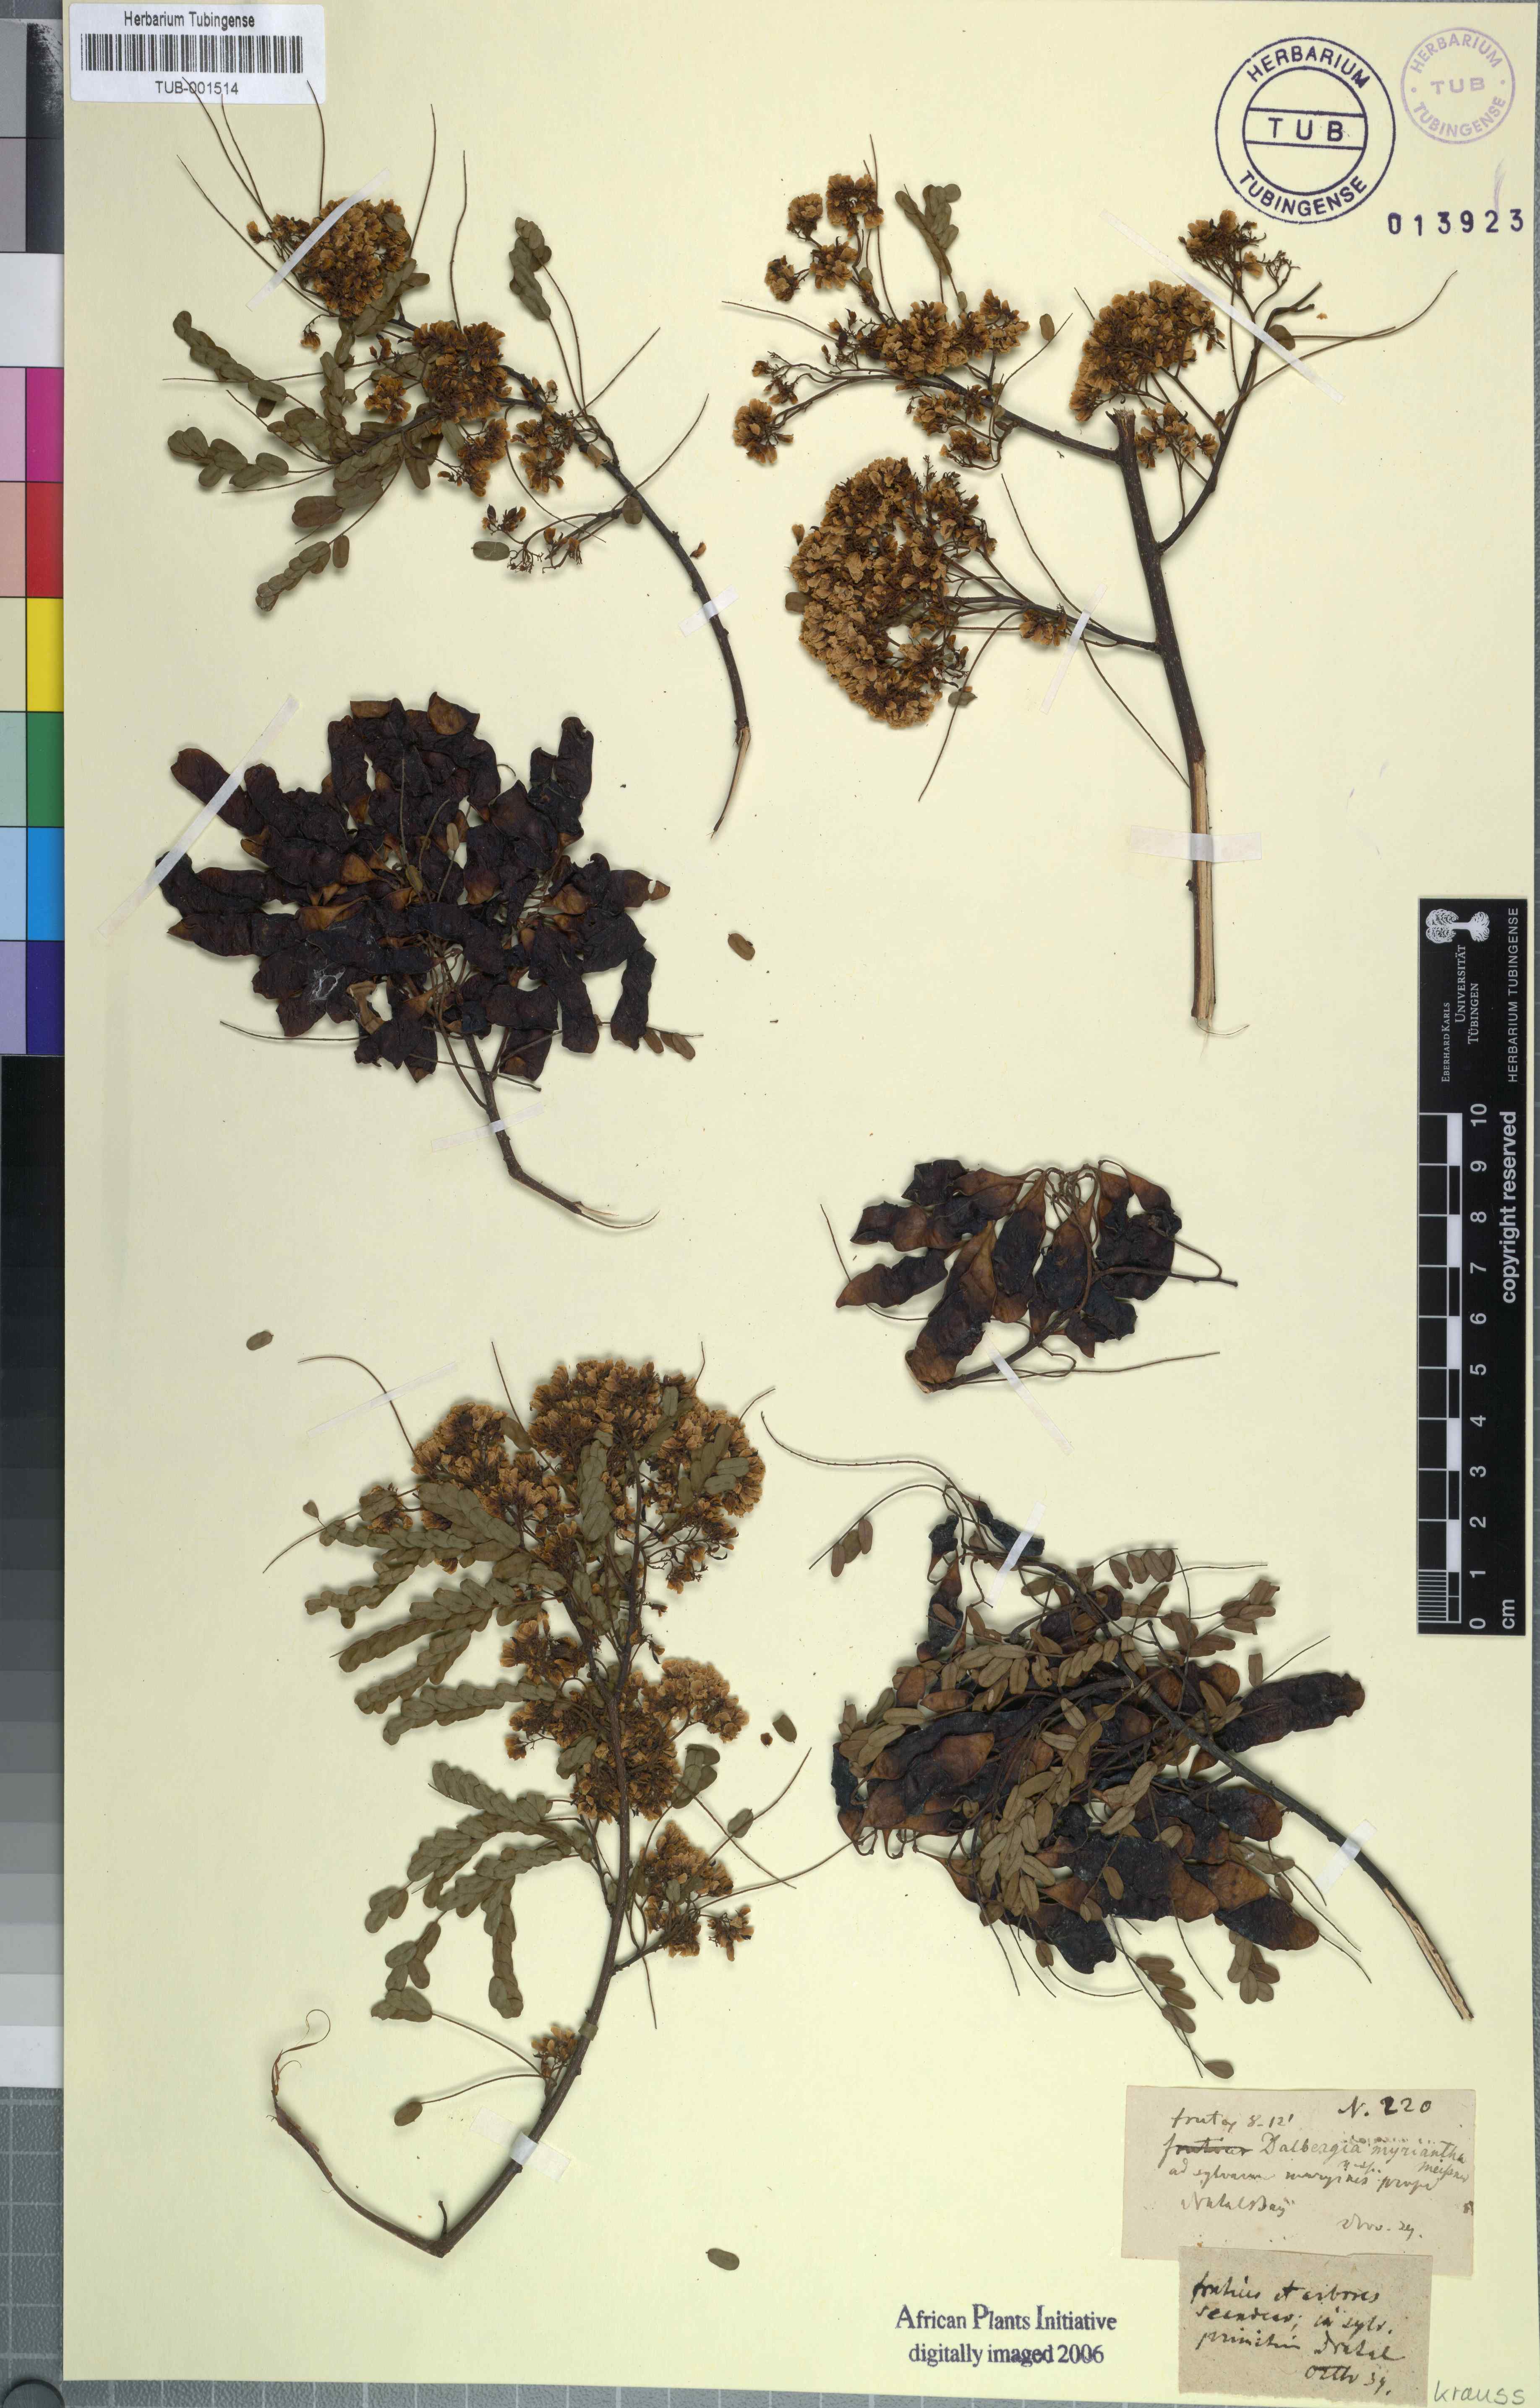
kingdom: Plantae
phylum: Tracheophyta
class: Magnoliopsida
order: Fabales
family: Fabaceae
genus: Dalbergia
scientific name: Dalbergia armata
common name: Hluhluwe climber
